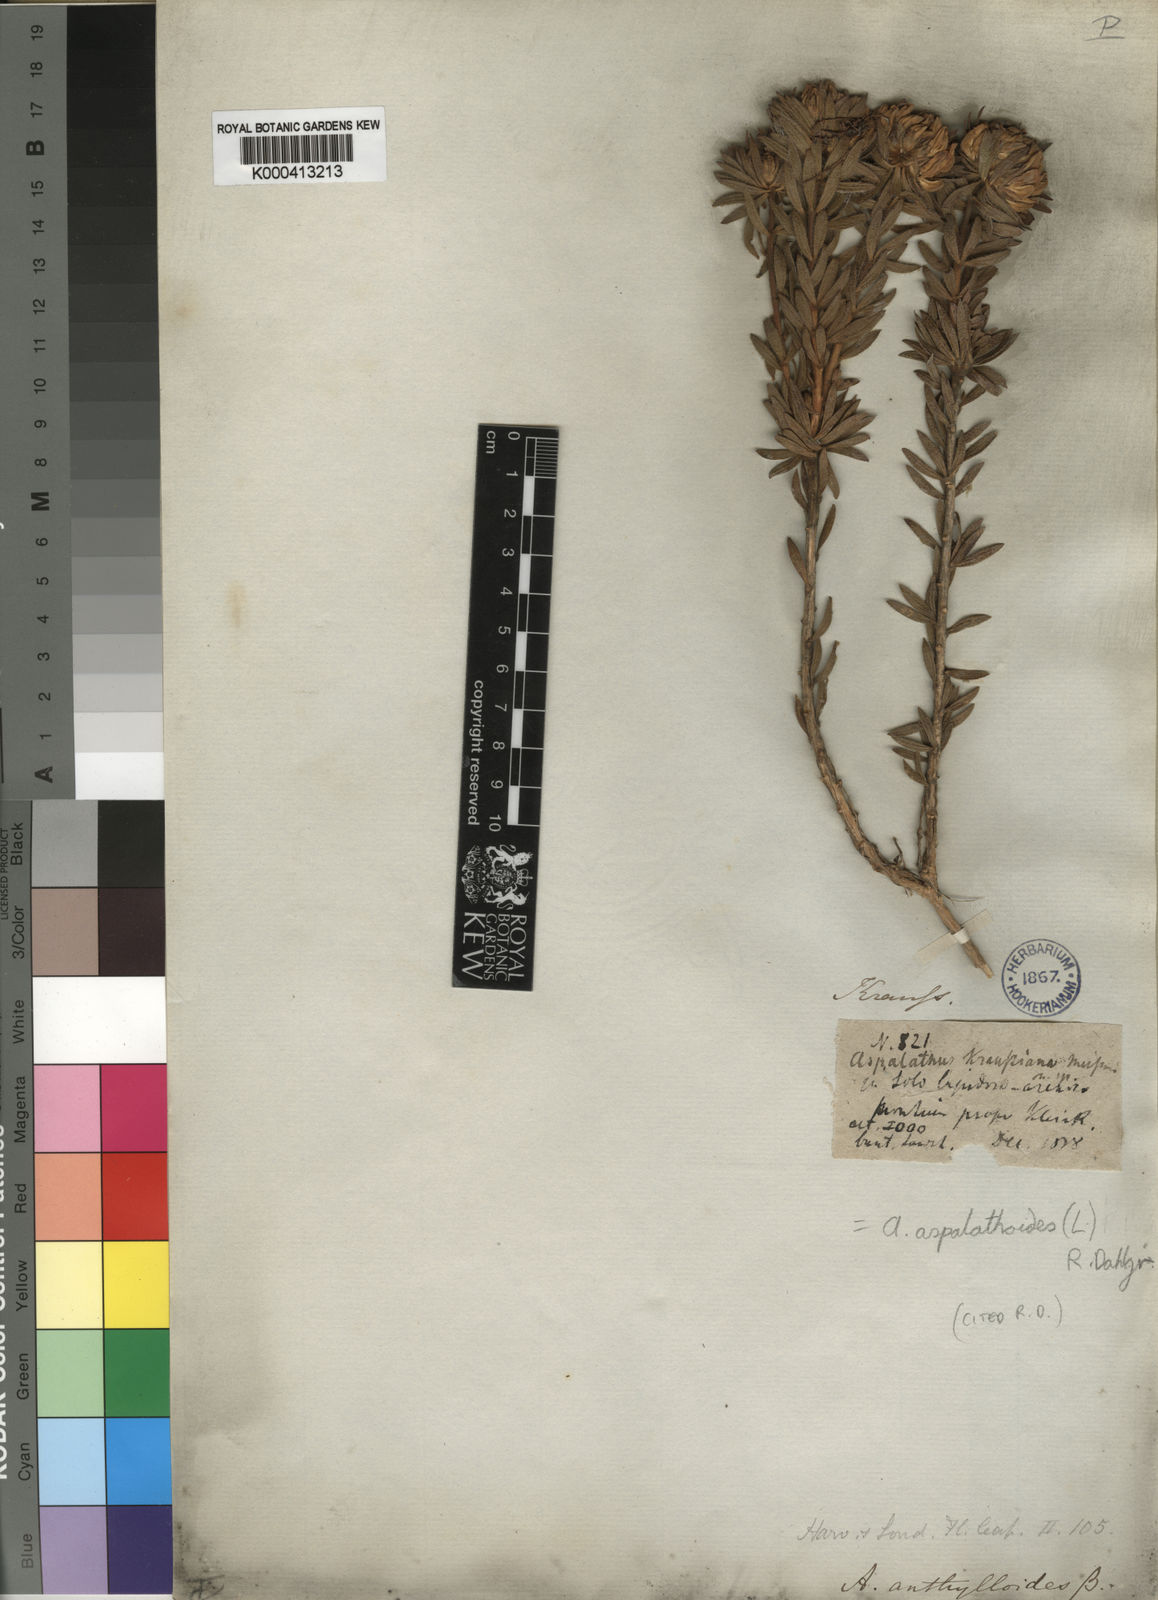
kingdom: Plantae
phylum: Tracheophyta
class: Magnoliopsida
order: Fabales
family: Fabaceae
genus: Aspalathus
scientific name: Aspalathus aspalathoides
